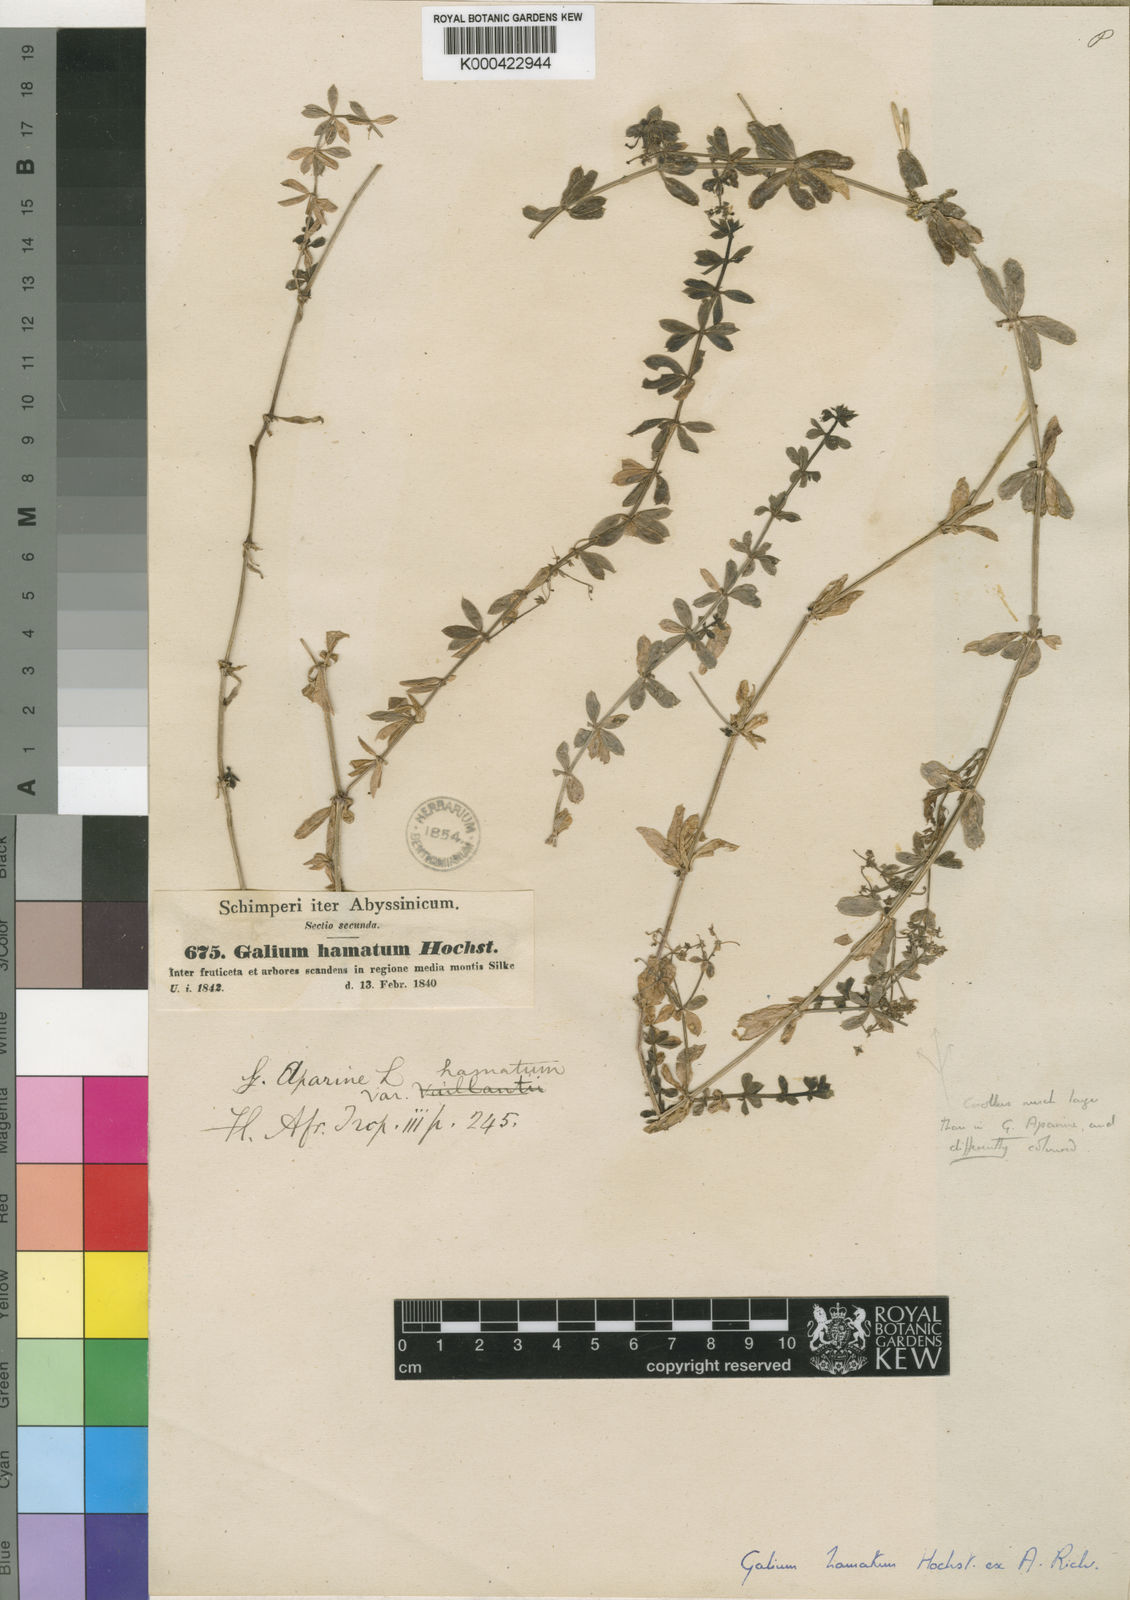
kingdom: Plantae
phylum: Tracheophyta
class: Magnoliopsida
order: Gentianales
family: Rubiaceae
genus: Galium
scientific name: Galium aparinoides
